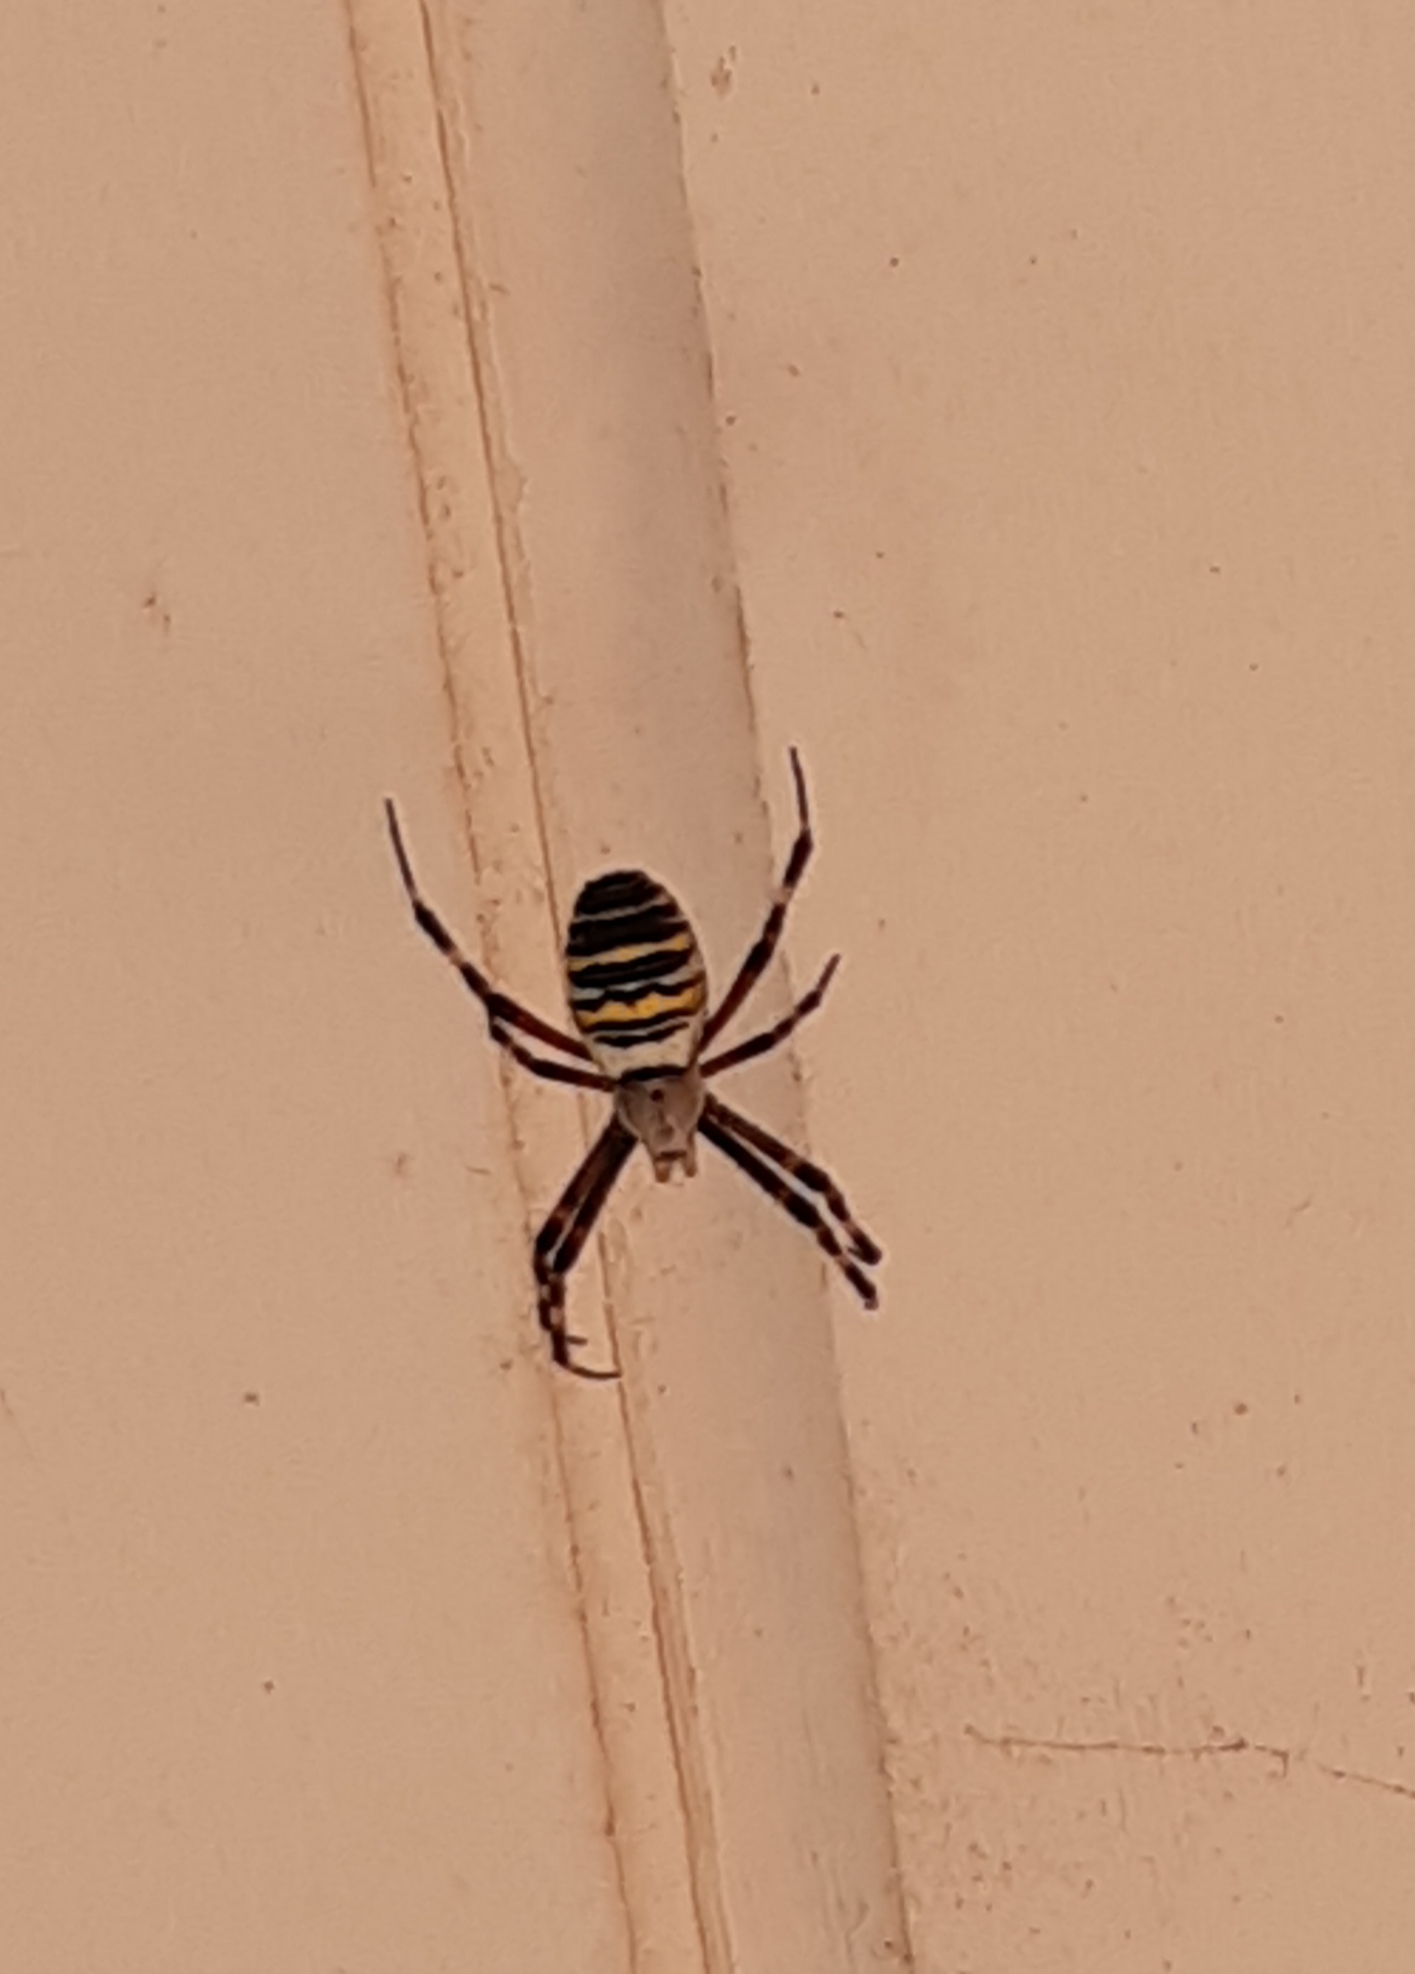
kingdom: Animalia
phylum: Arthropoda
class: Arachnida
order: Araneae
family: Araneidae
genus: Argiope
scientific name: Argiope bruennichi
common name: Hvepseedderkop
